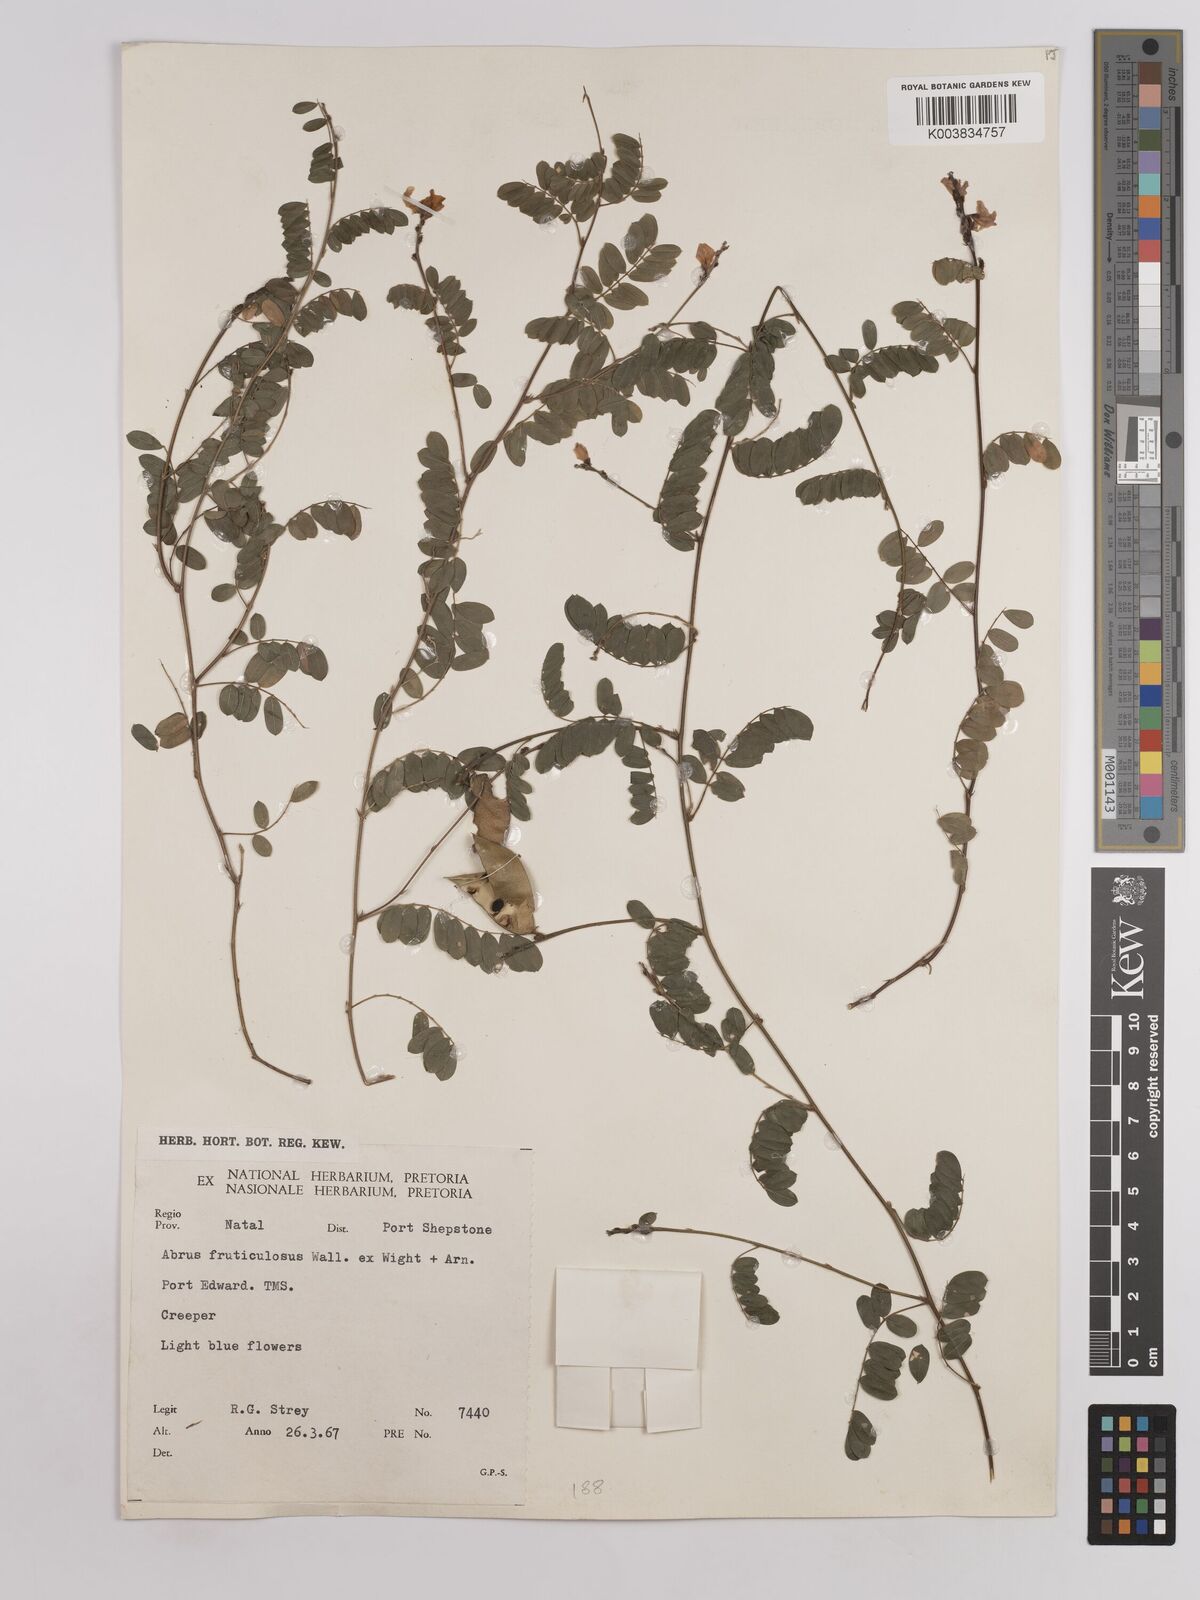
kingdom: Plantae
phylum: Tracheophyta
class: Magnoliopsida
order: Fabales
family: Fabaceae
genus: Abrus
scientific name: Abrus laevigatus
